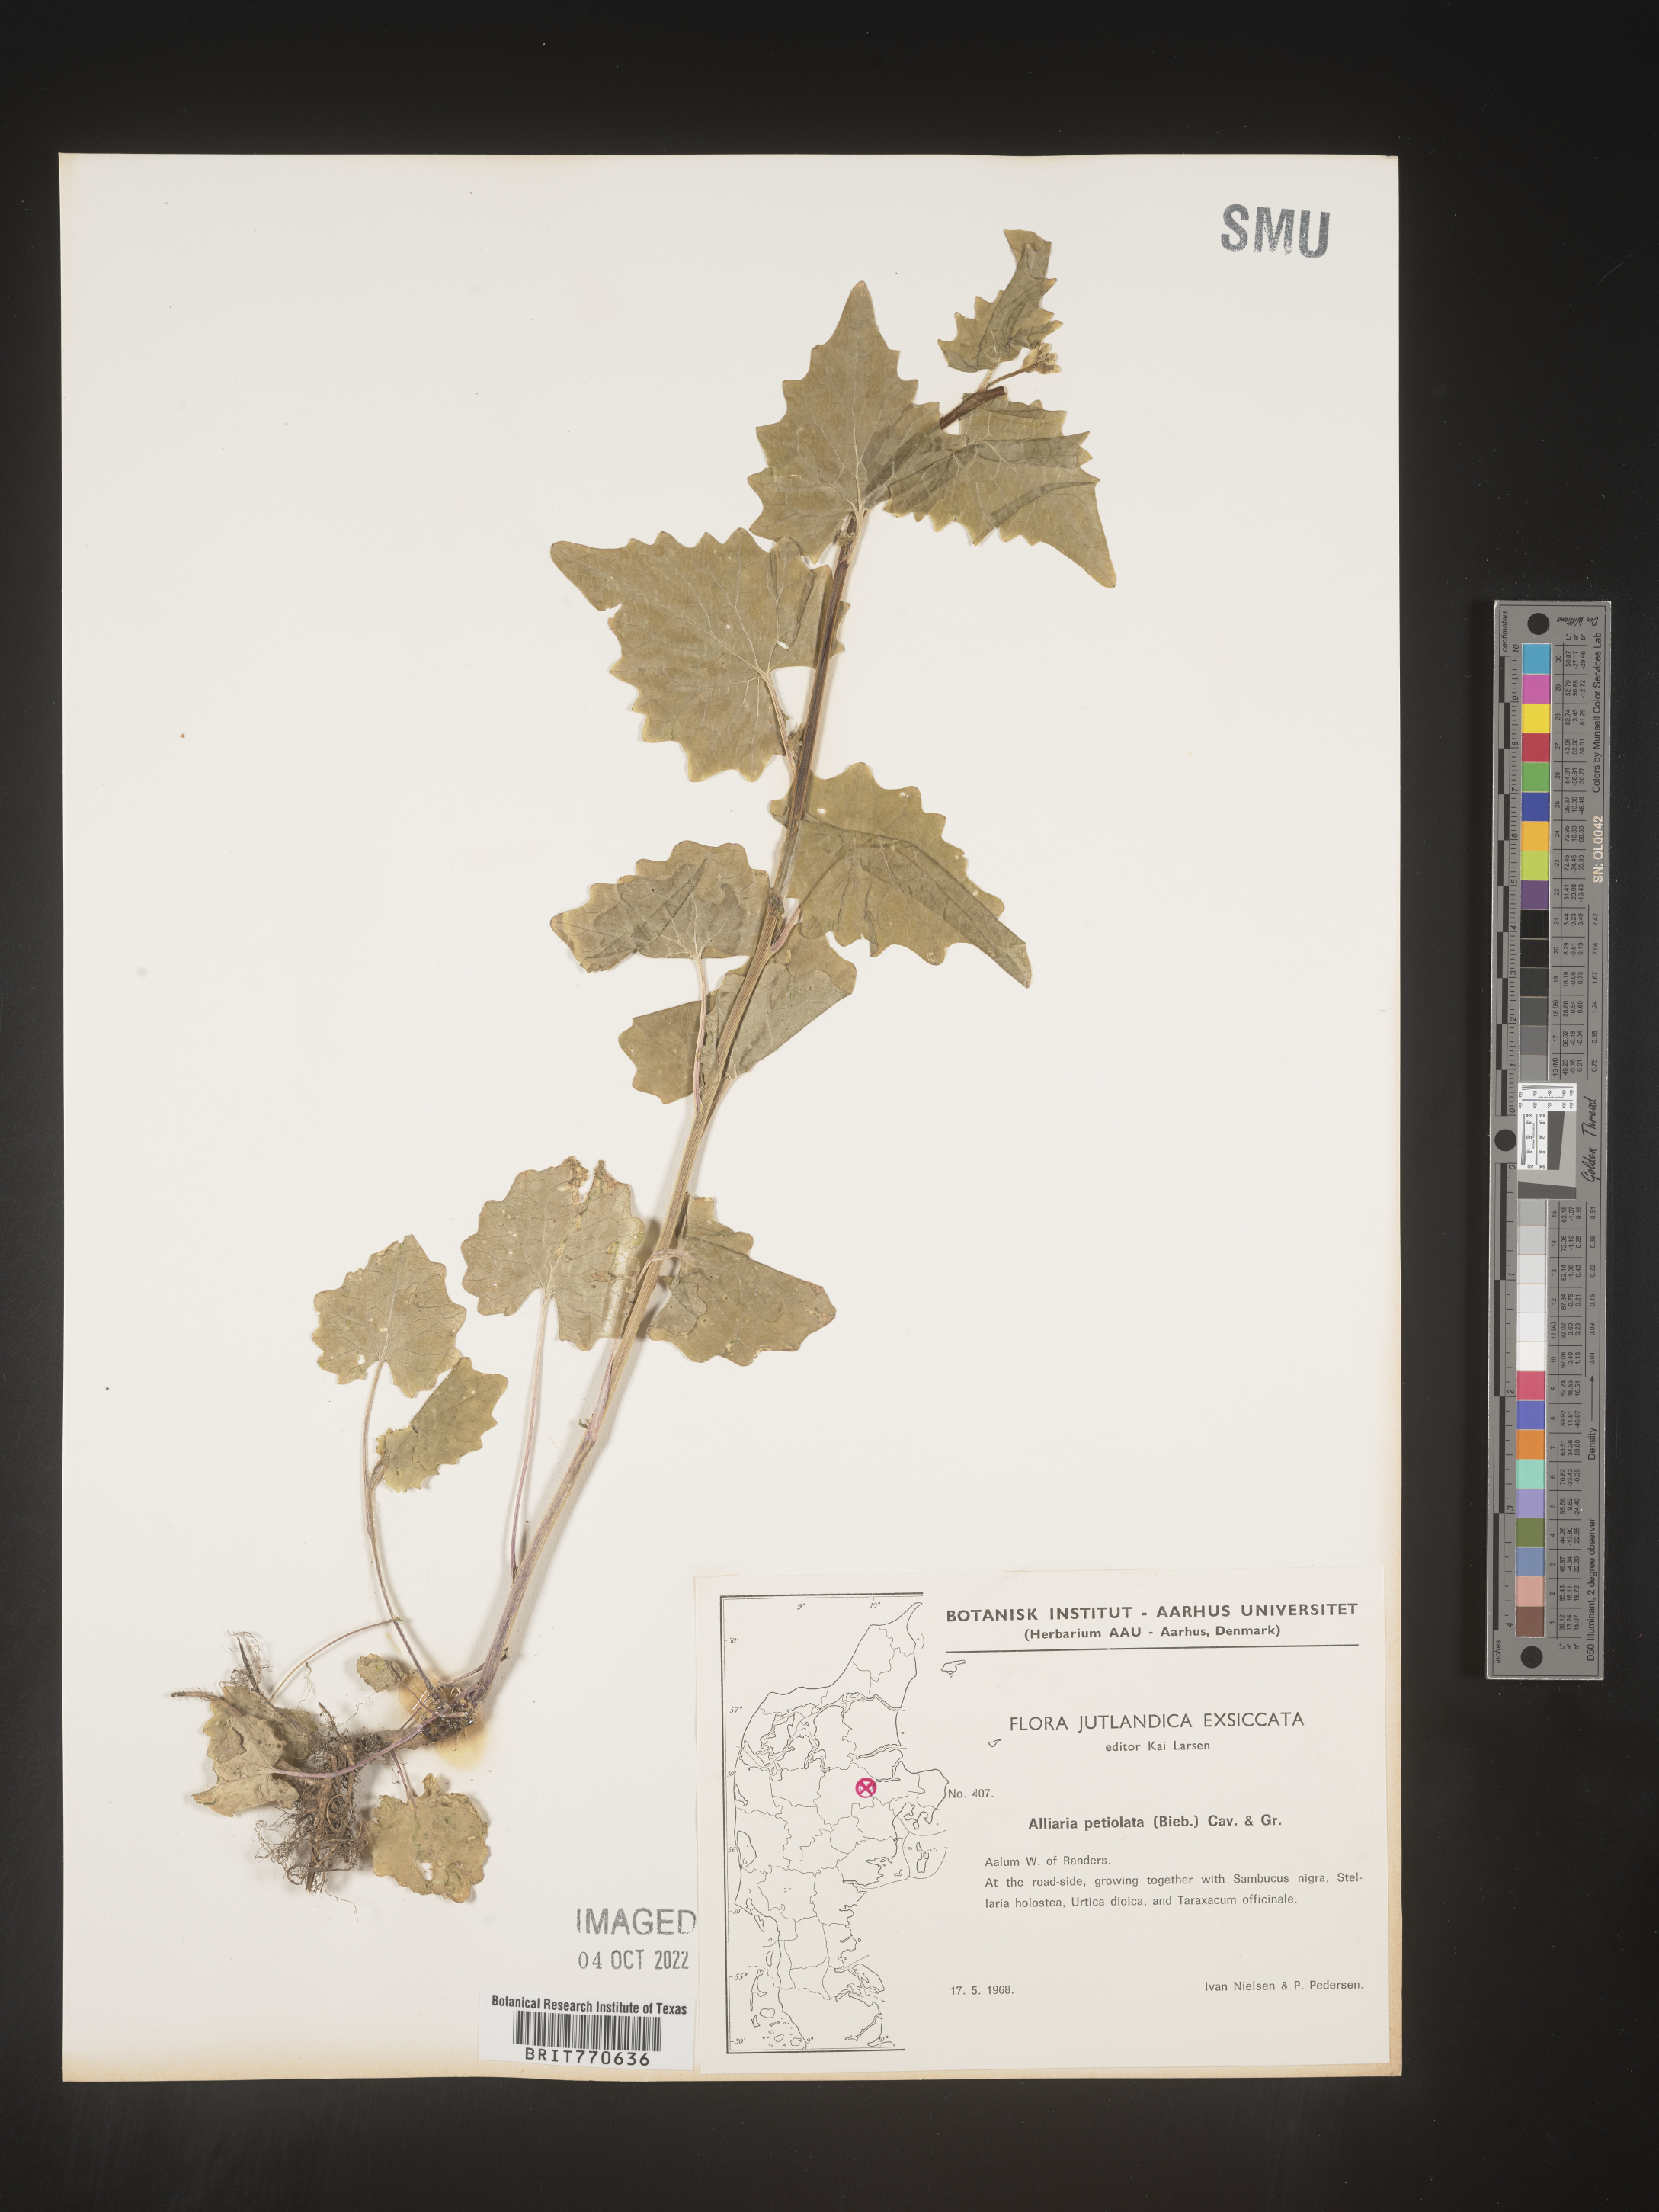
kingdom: Plantae
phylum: Tracheophyta
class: Magnoliopsida
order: Brassicales
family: Brassicaceae
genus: Alliaria
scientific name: Alliaria
